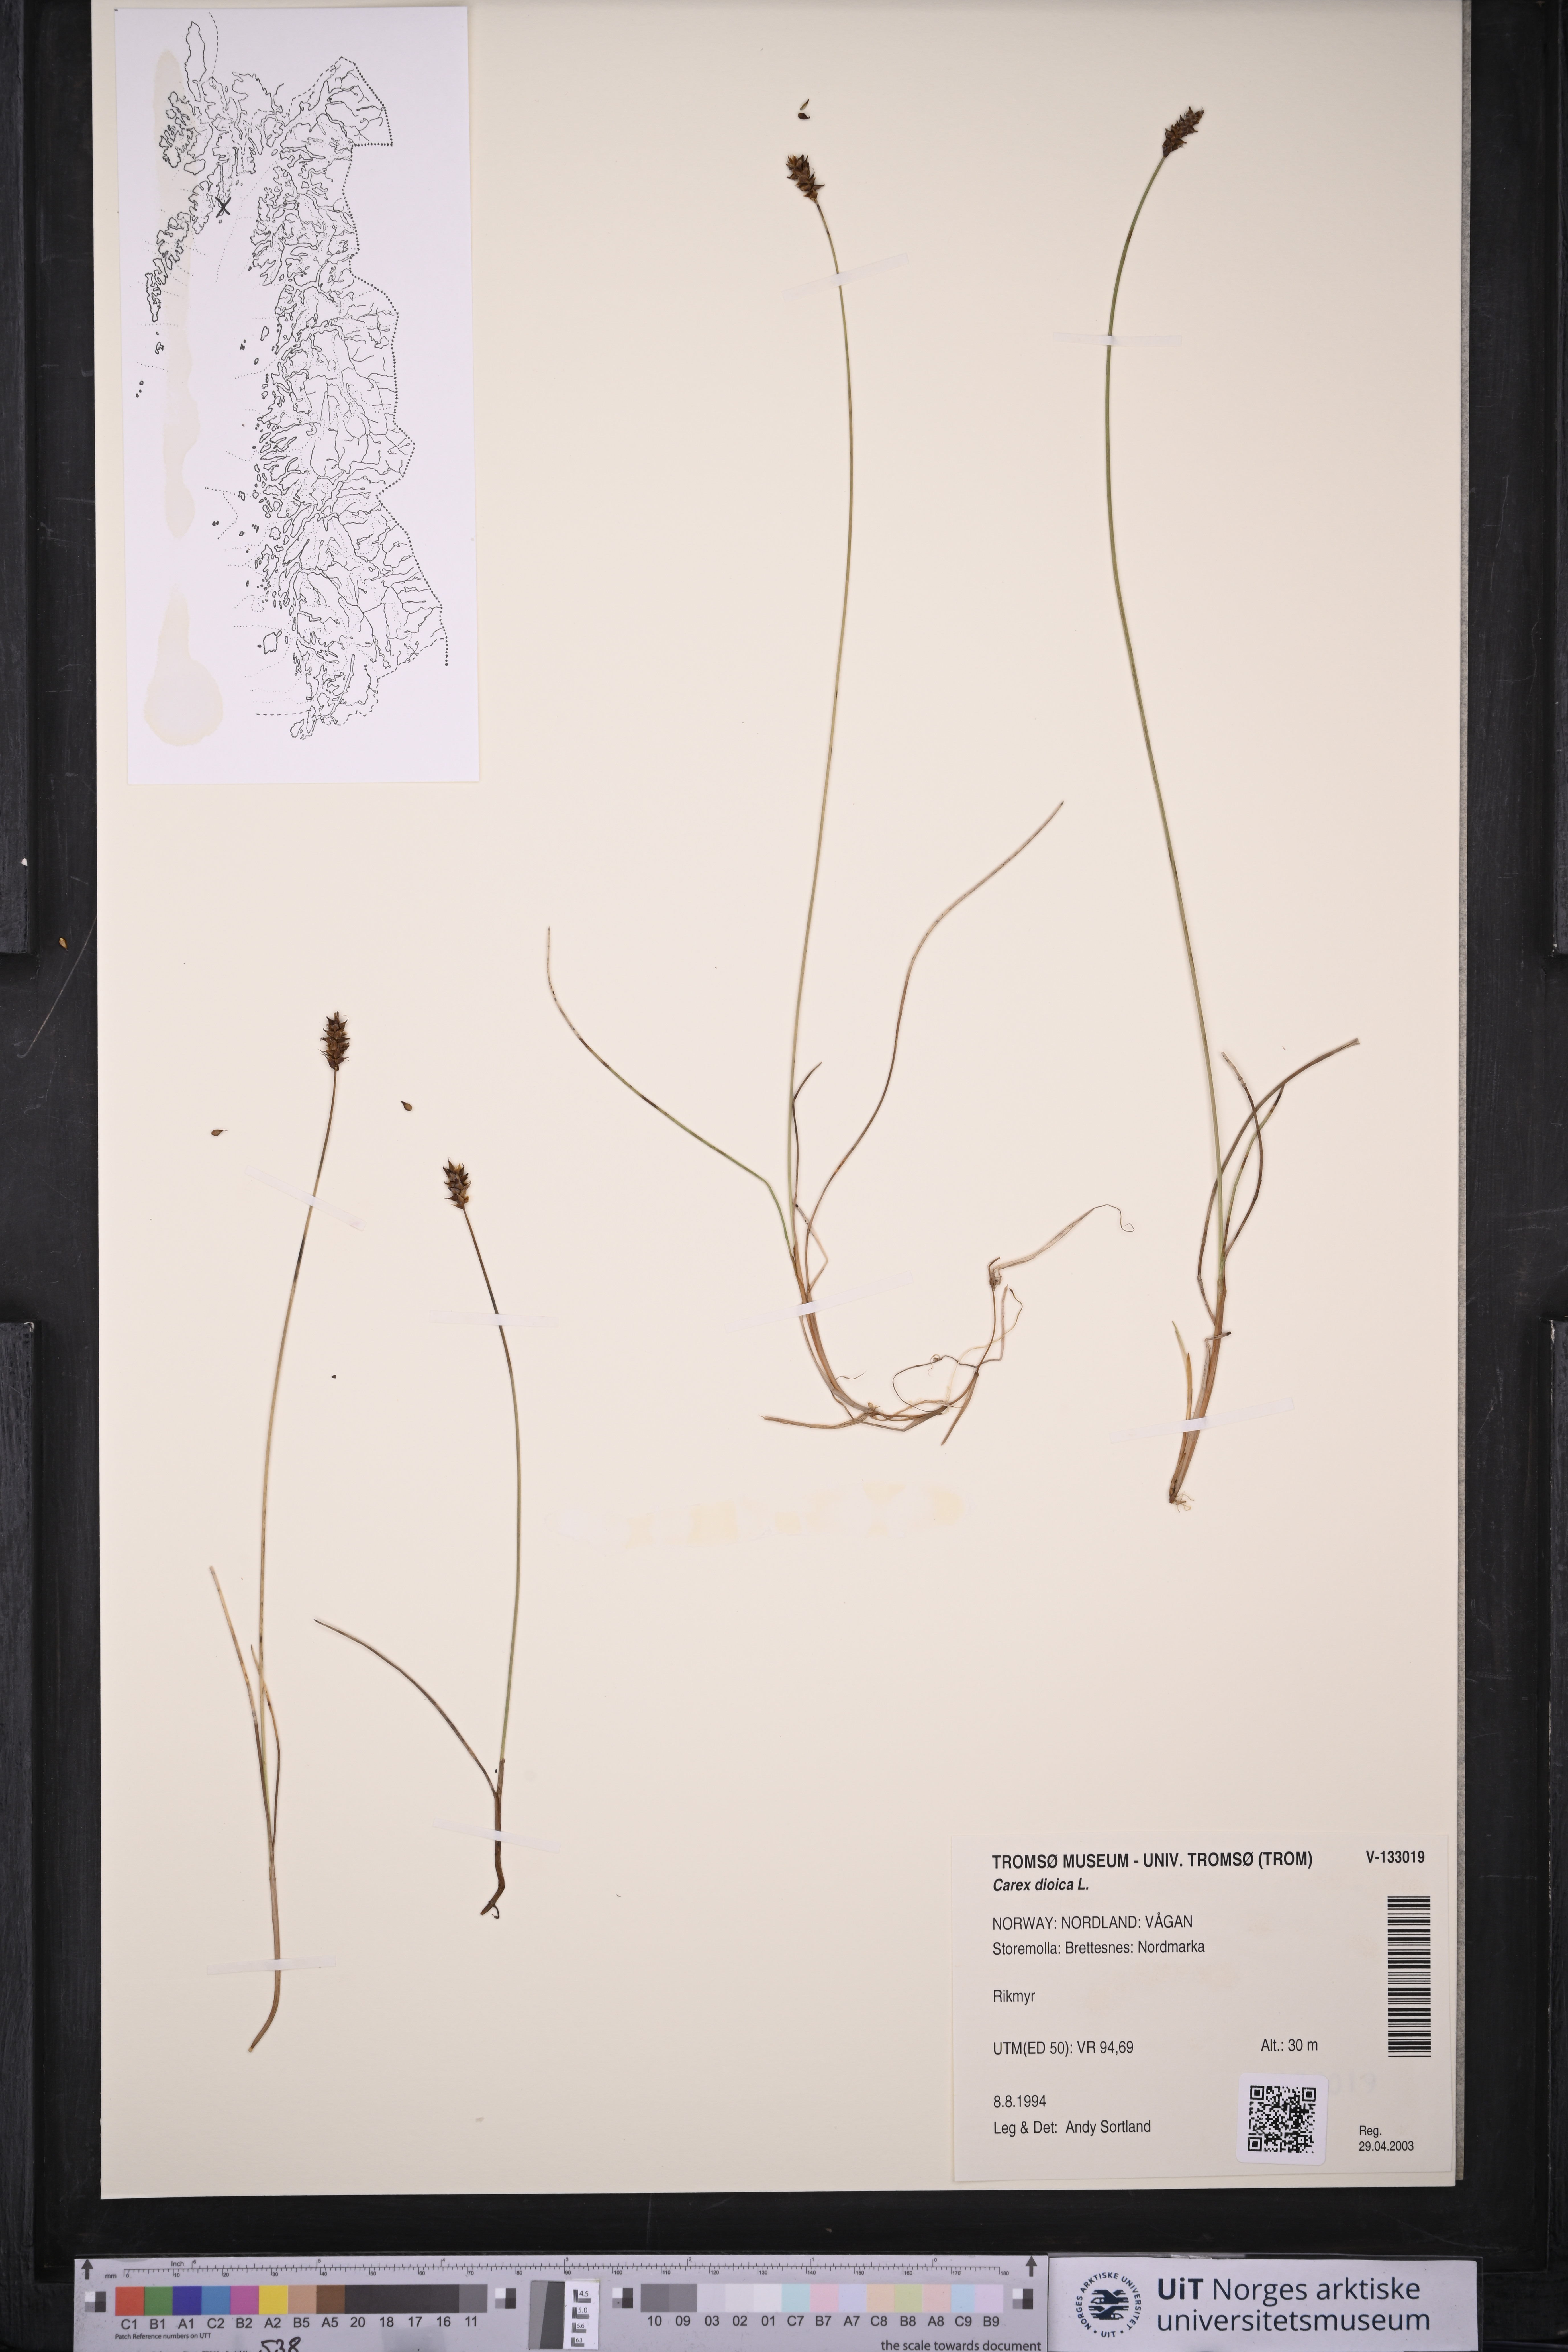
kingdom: Plantae
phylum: Tracheophyta
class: Liliopsida
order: Poales
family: Cyperaceae
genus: Carex
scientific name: Carex dioica
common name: Dioecious sedge
